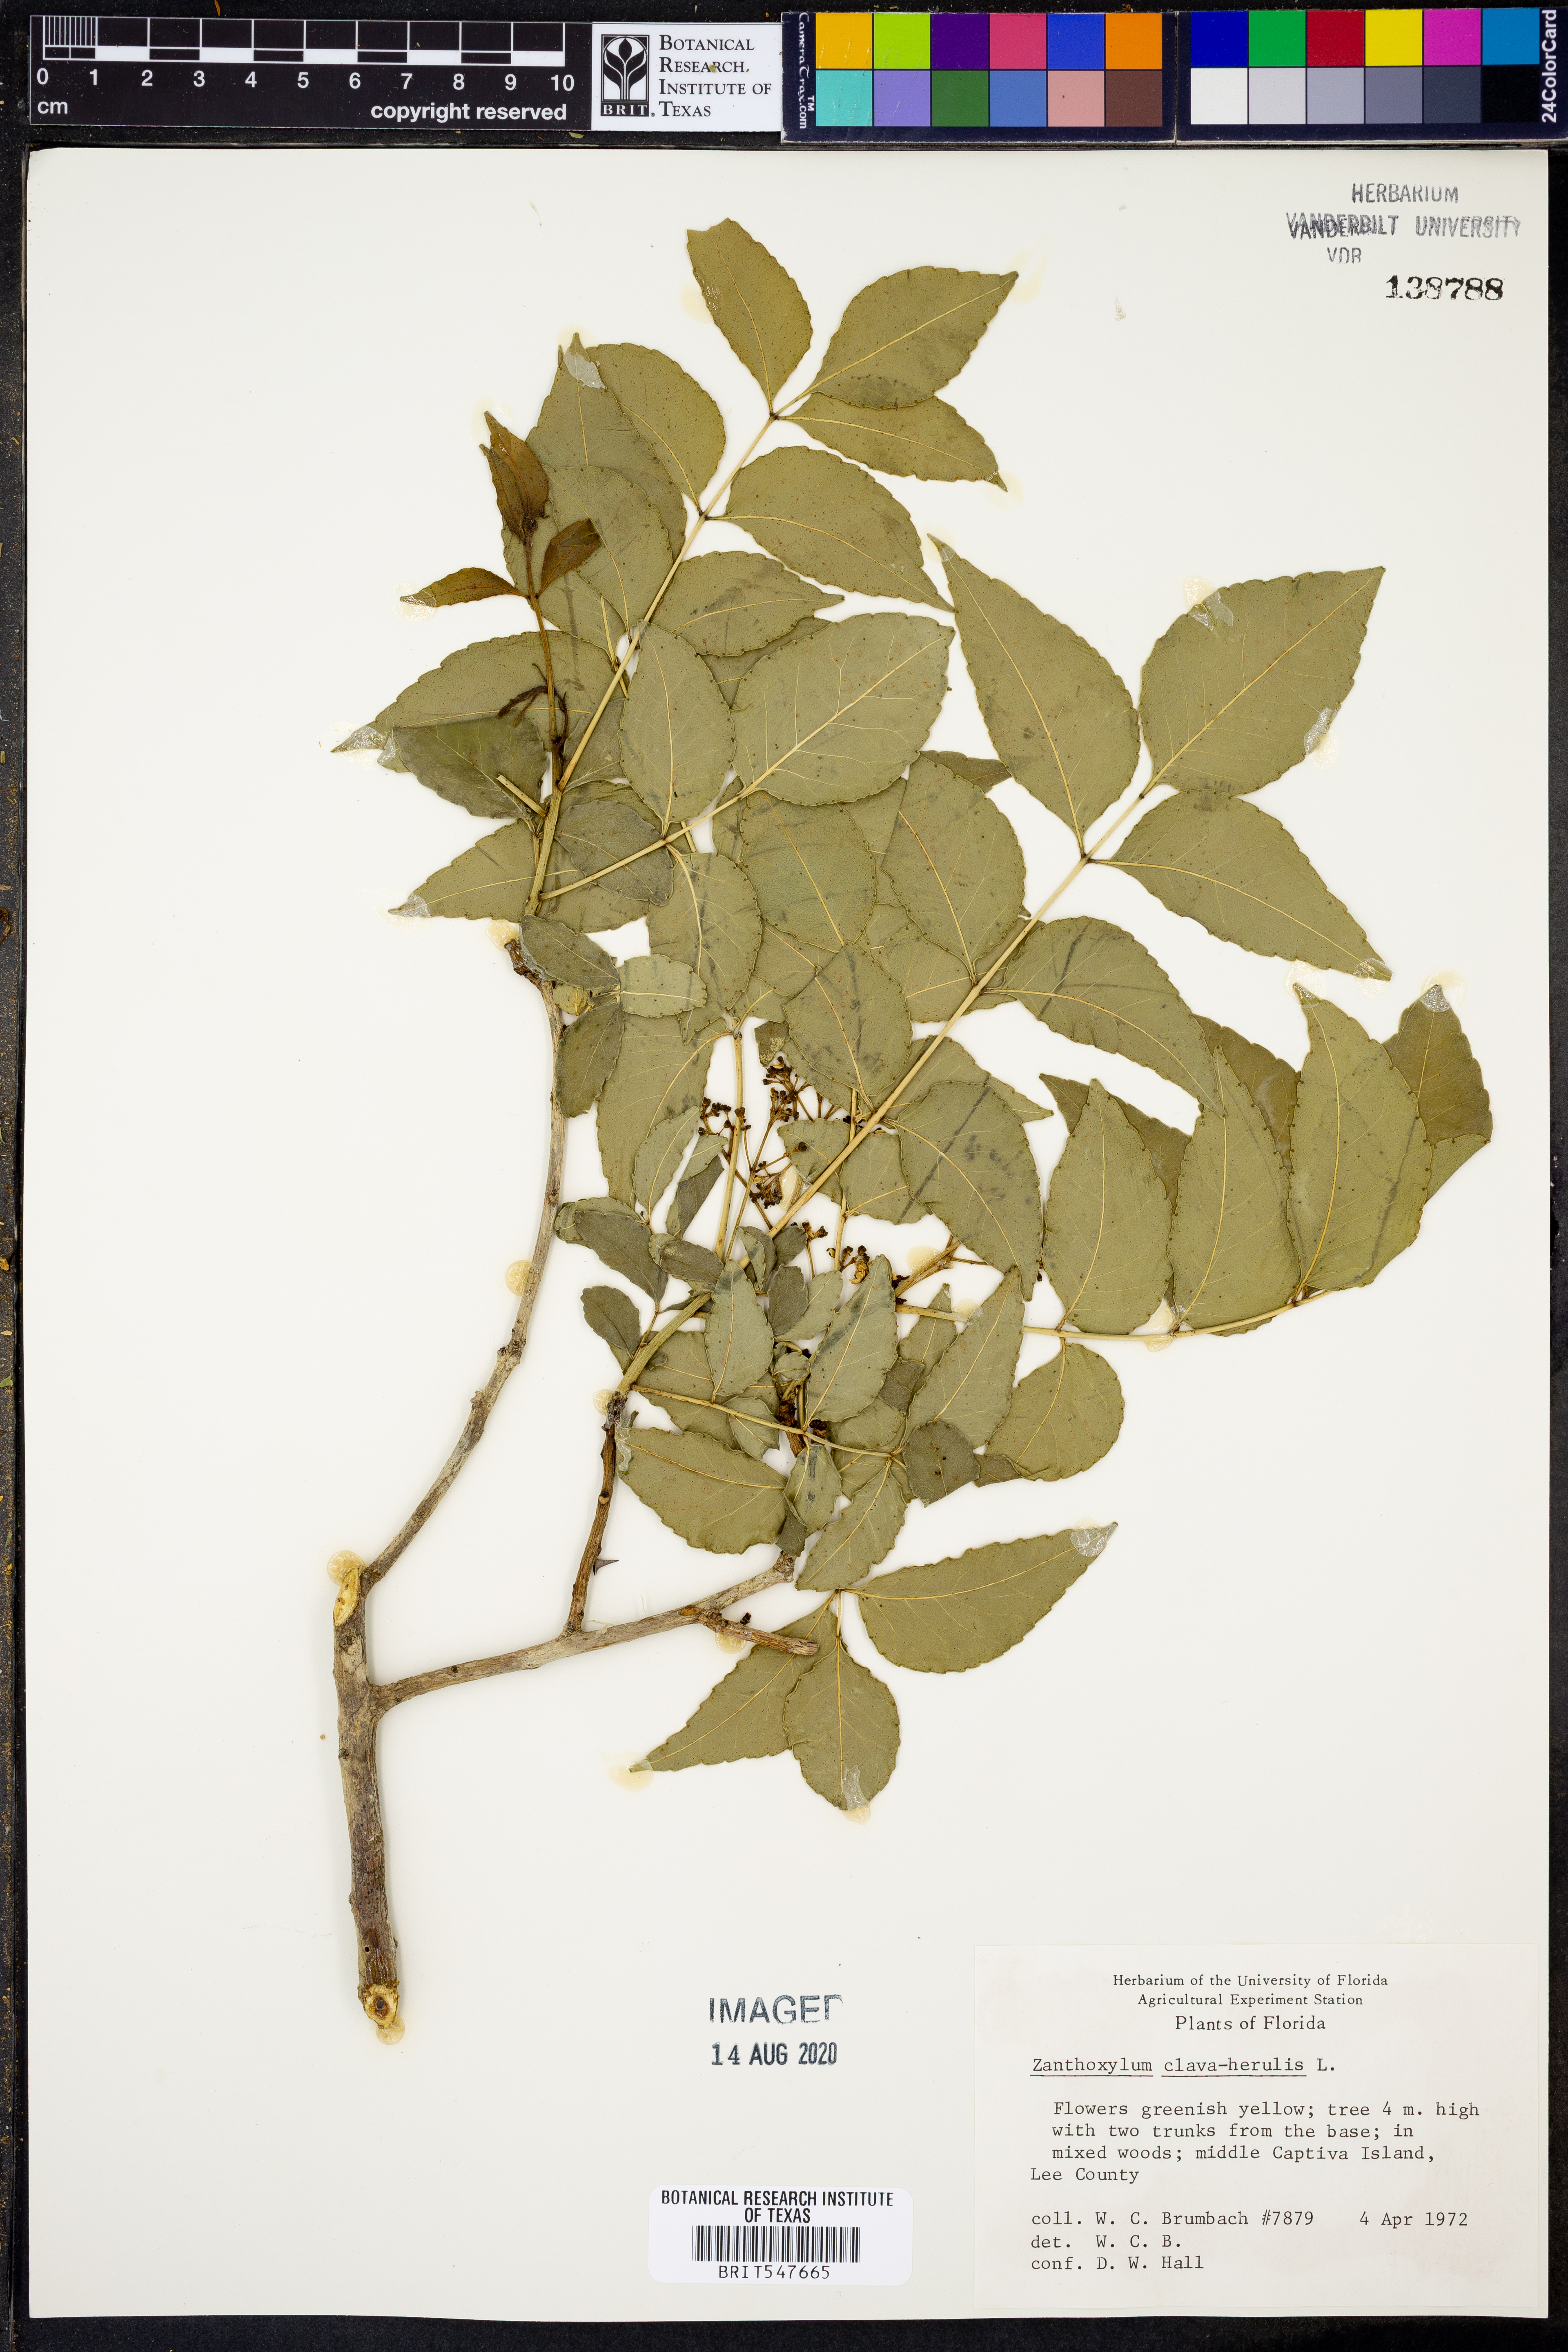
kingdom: Plantae
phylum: Tracheophyta
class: Magnoliopsida
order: Sapindales
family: Rutaceae
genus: Zanthoxylum
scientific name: Zanthoxylum avicennae
